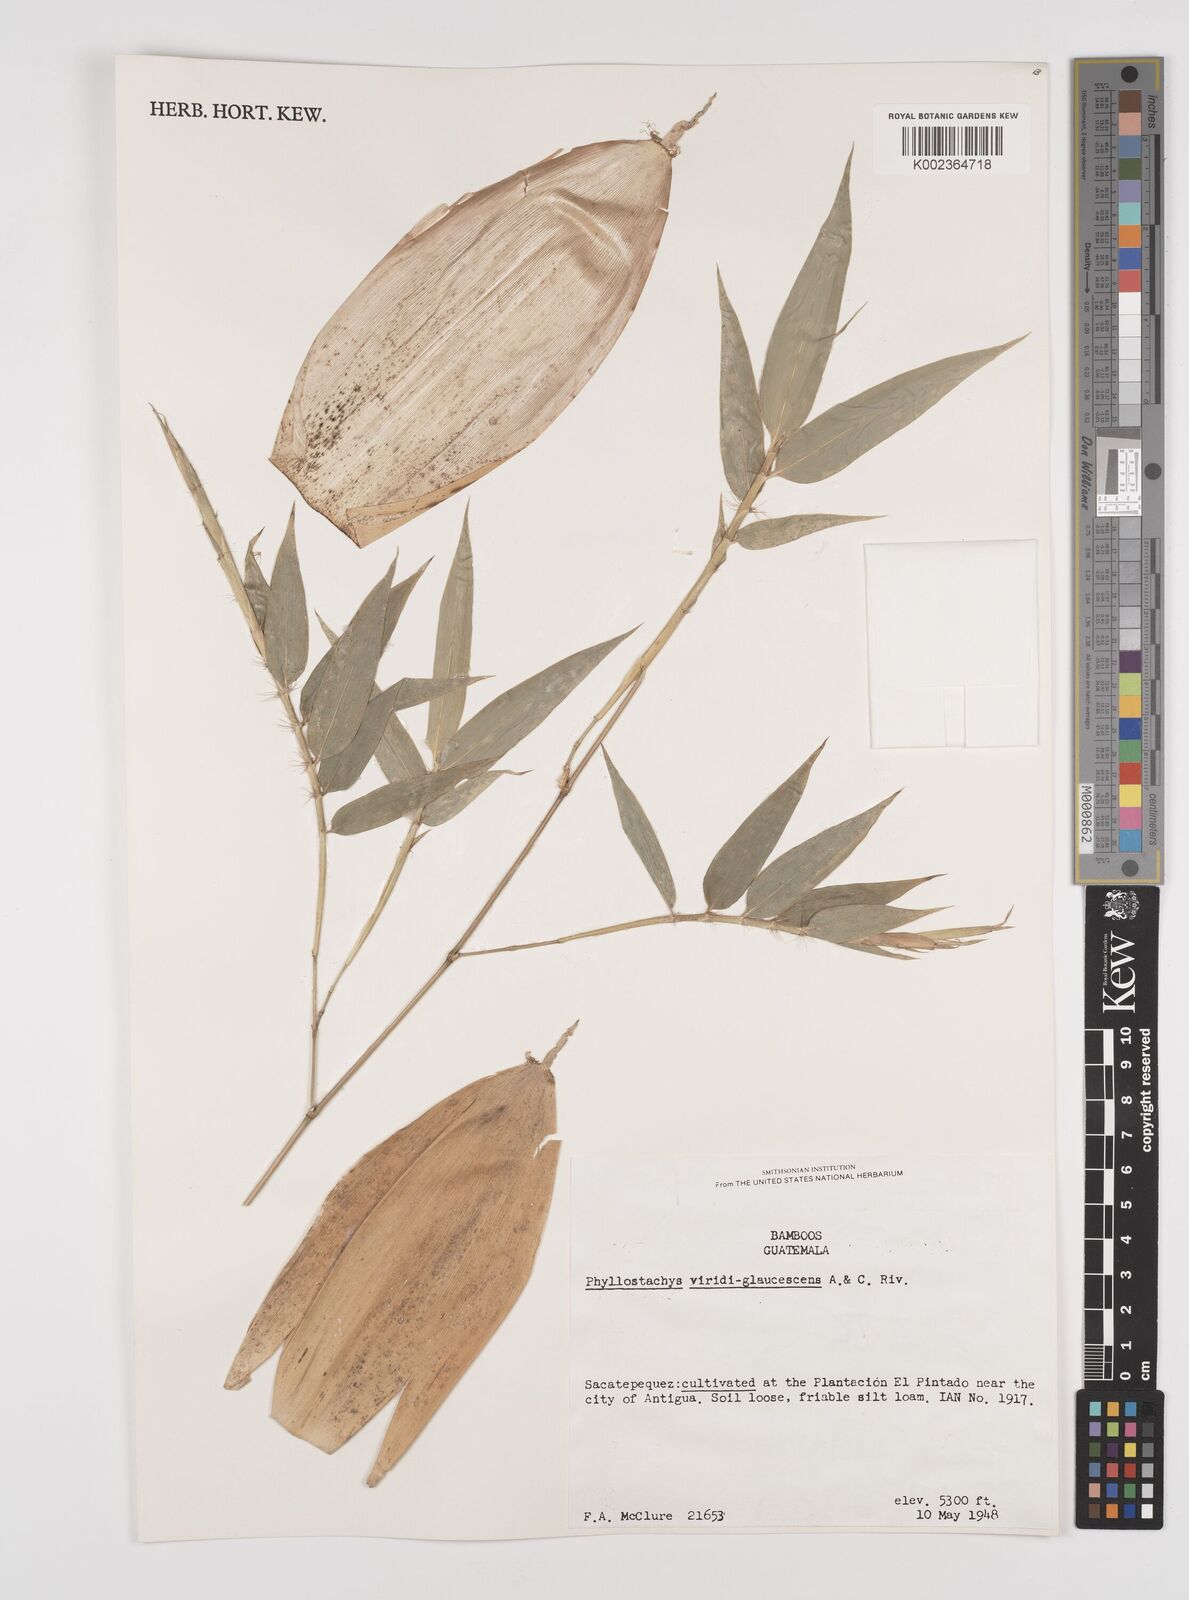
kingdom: Plantae
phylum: Tracheophyta
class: Liliopsida
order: Poales
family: Poaceae
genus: Phyllostachys
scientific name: Phyllostachys viridiglaucescens
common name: Greenwax golden bamboo
